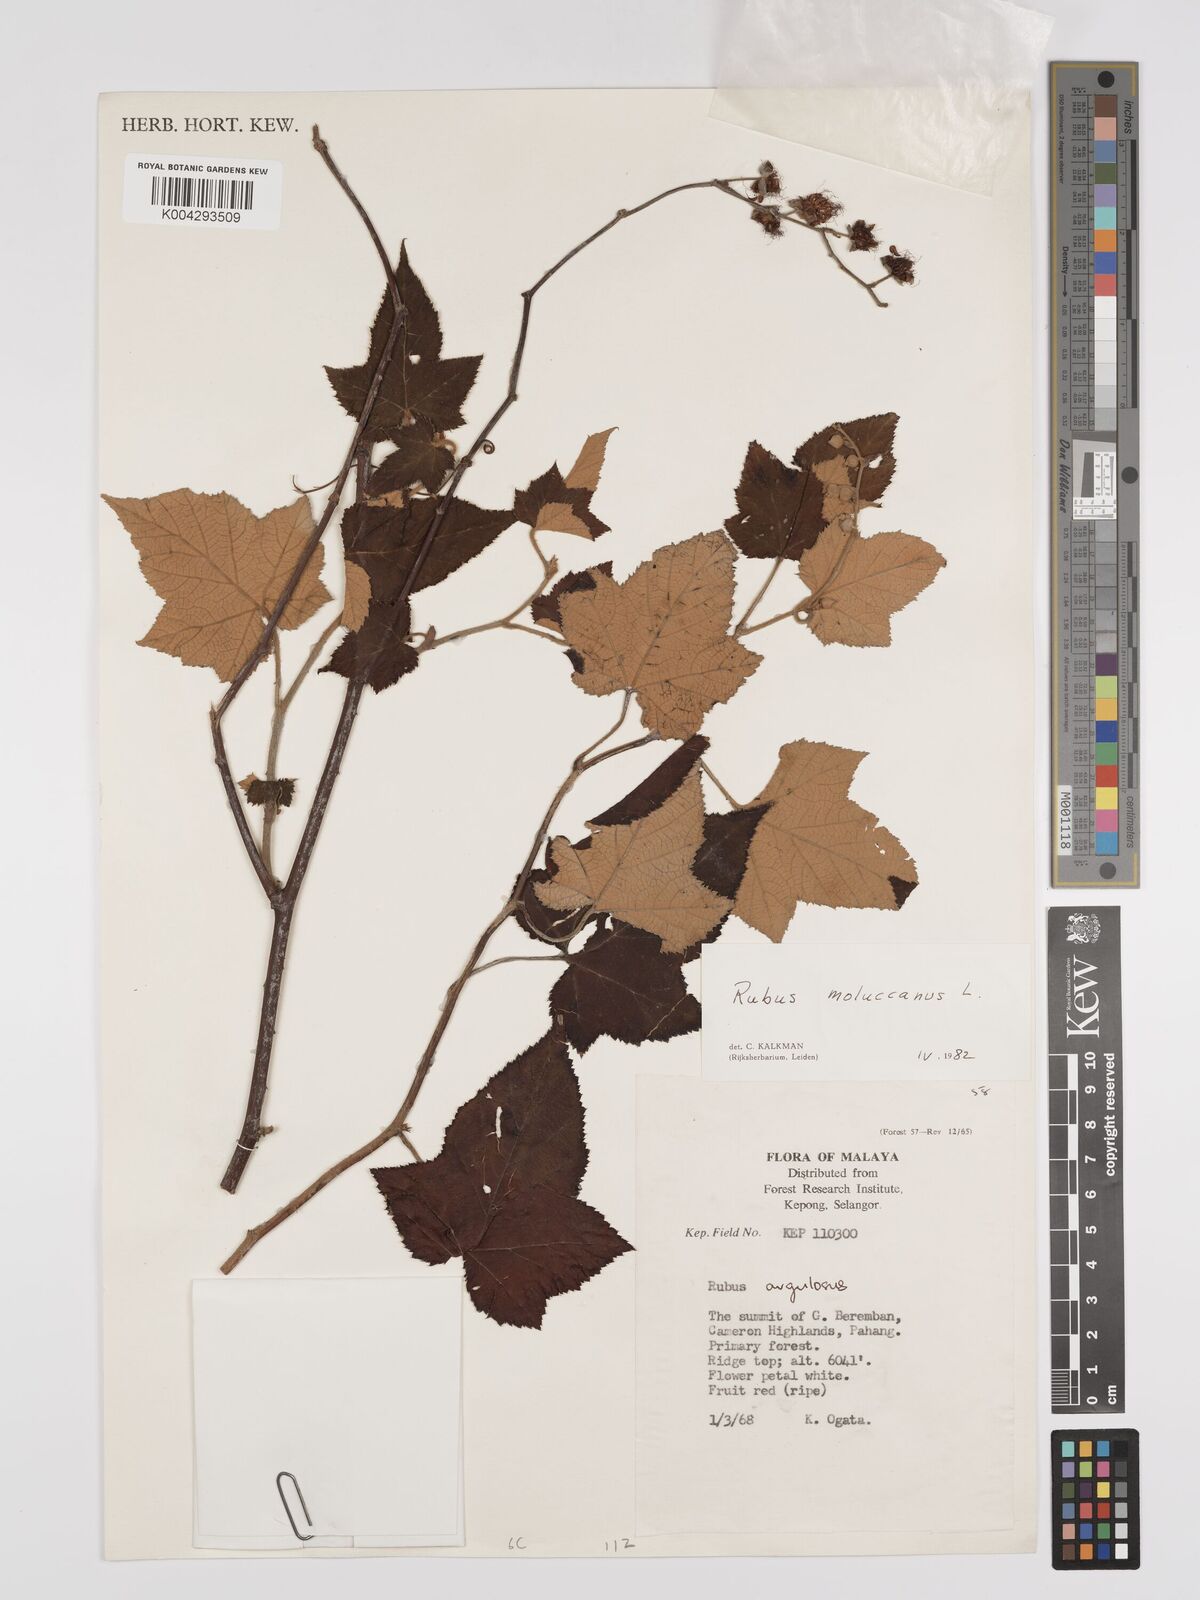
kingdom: Plantae
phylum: Tracheophyta
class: Magnoliopsida
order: Rosales
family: Rosaceae
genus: Rubus
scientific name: Rubus moluccanus
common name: Wild raspberry
